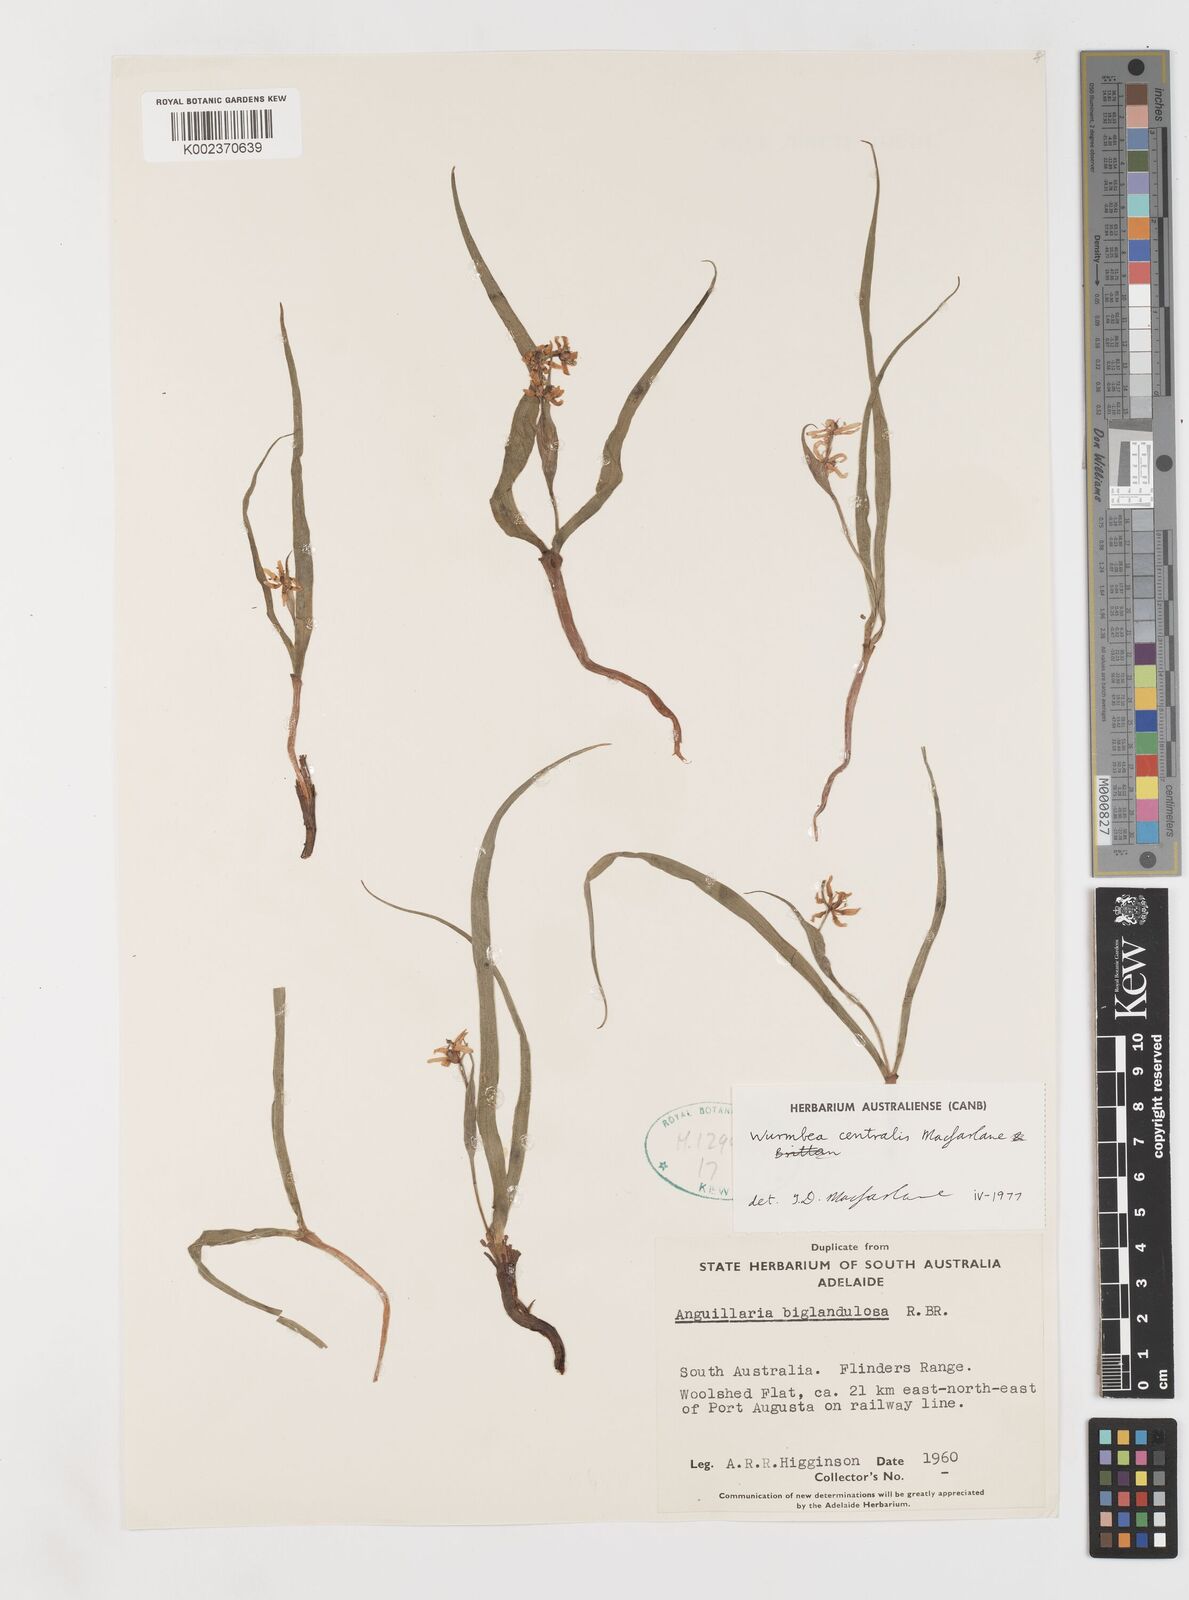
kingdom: Plantae
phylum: Tracheophyta
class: Liliopsida
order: Liliales
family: Colchicaceae
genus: Wurmbea
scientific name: Wurmbea centralis
